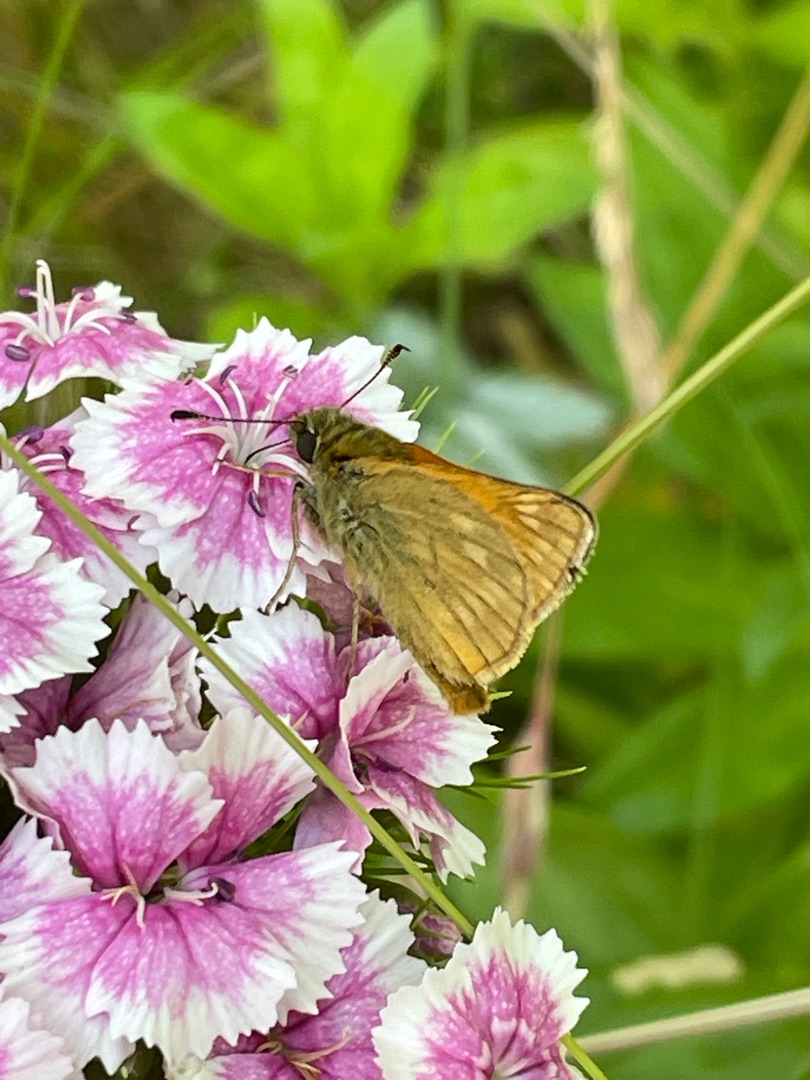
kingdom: Animalia
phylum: Arthropoda
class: Insecta
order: Lepidoptera
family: Hesperiidae
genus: Ochlodes
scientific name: Ochlodes venata
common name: Stor bredpande
